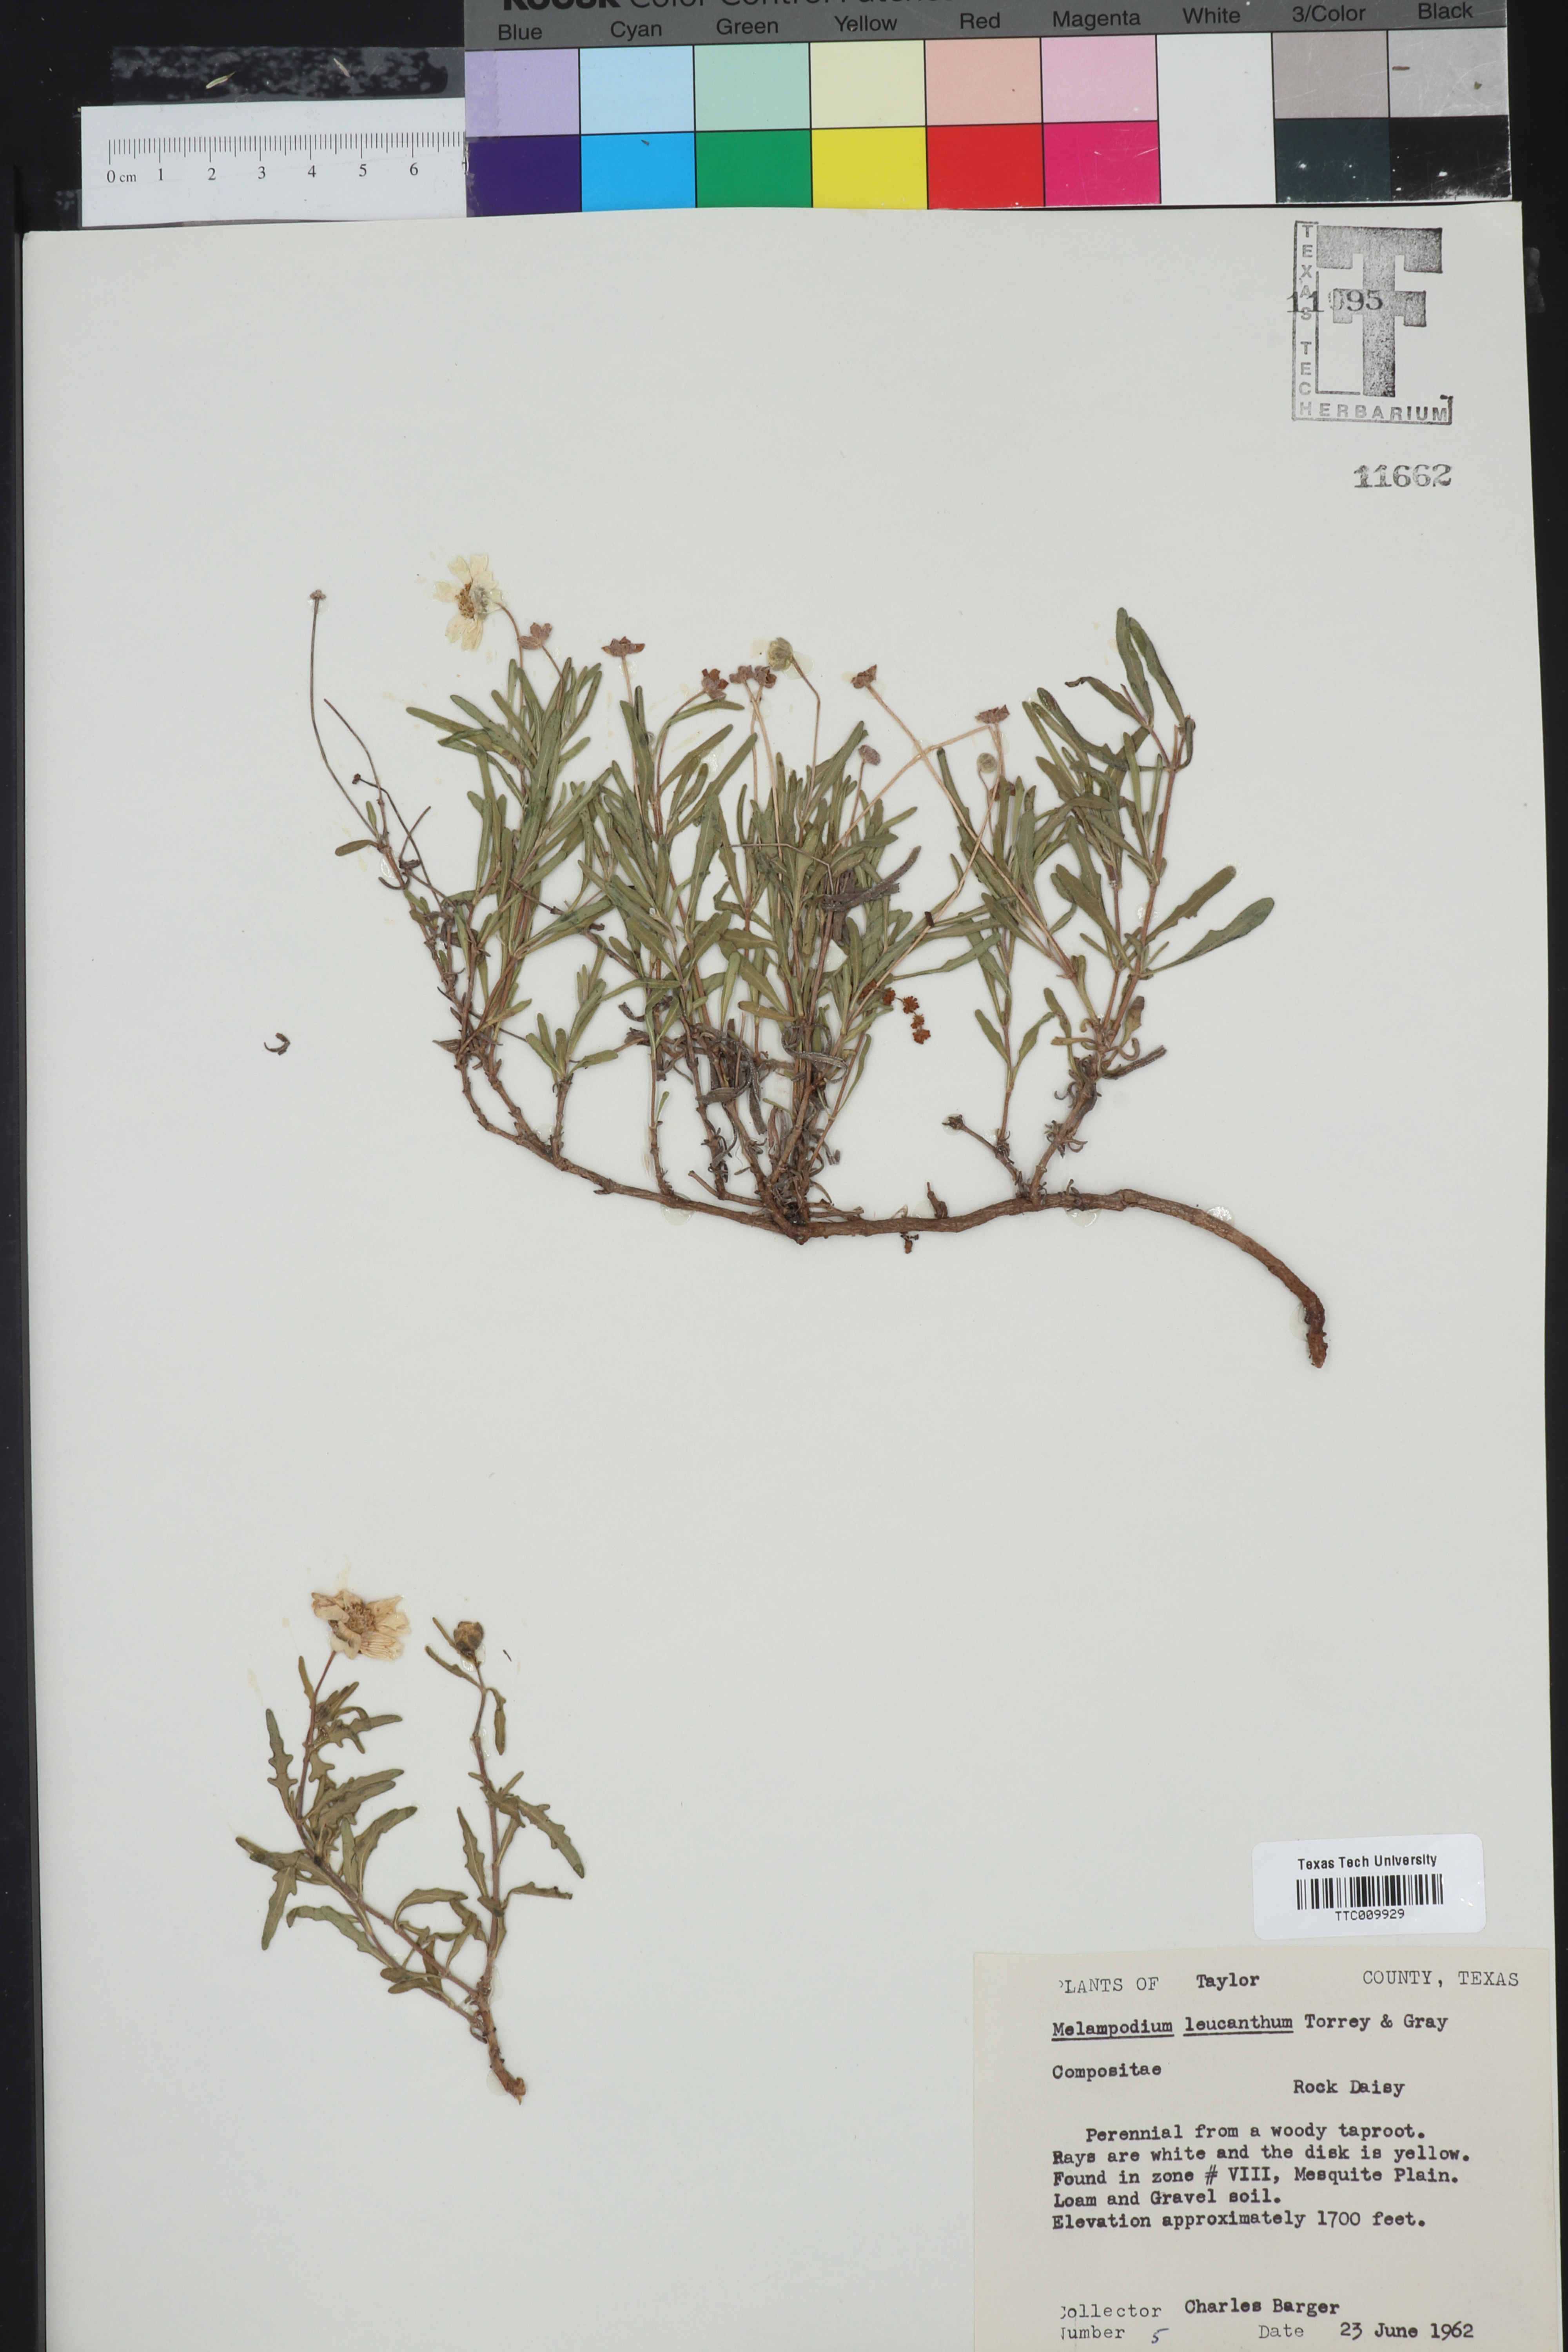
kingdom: Plantae
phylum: Tracheophyta
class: Magnoliopsida
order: Asterales
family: Asteraceae
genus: Melampodium
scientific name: Melampodium leucanthum
